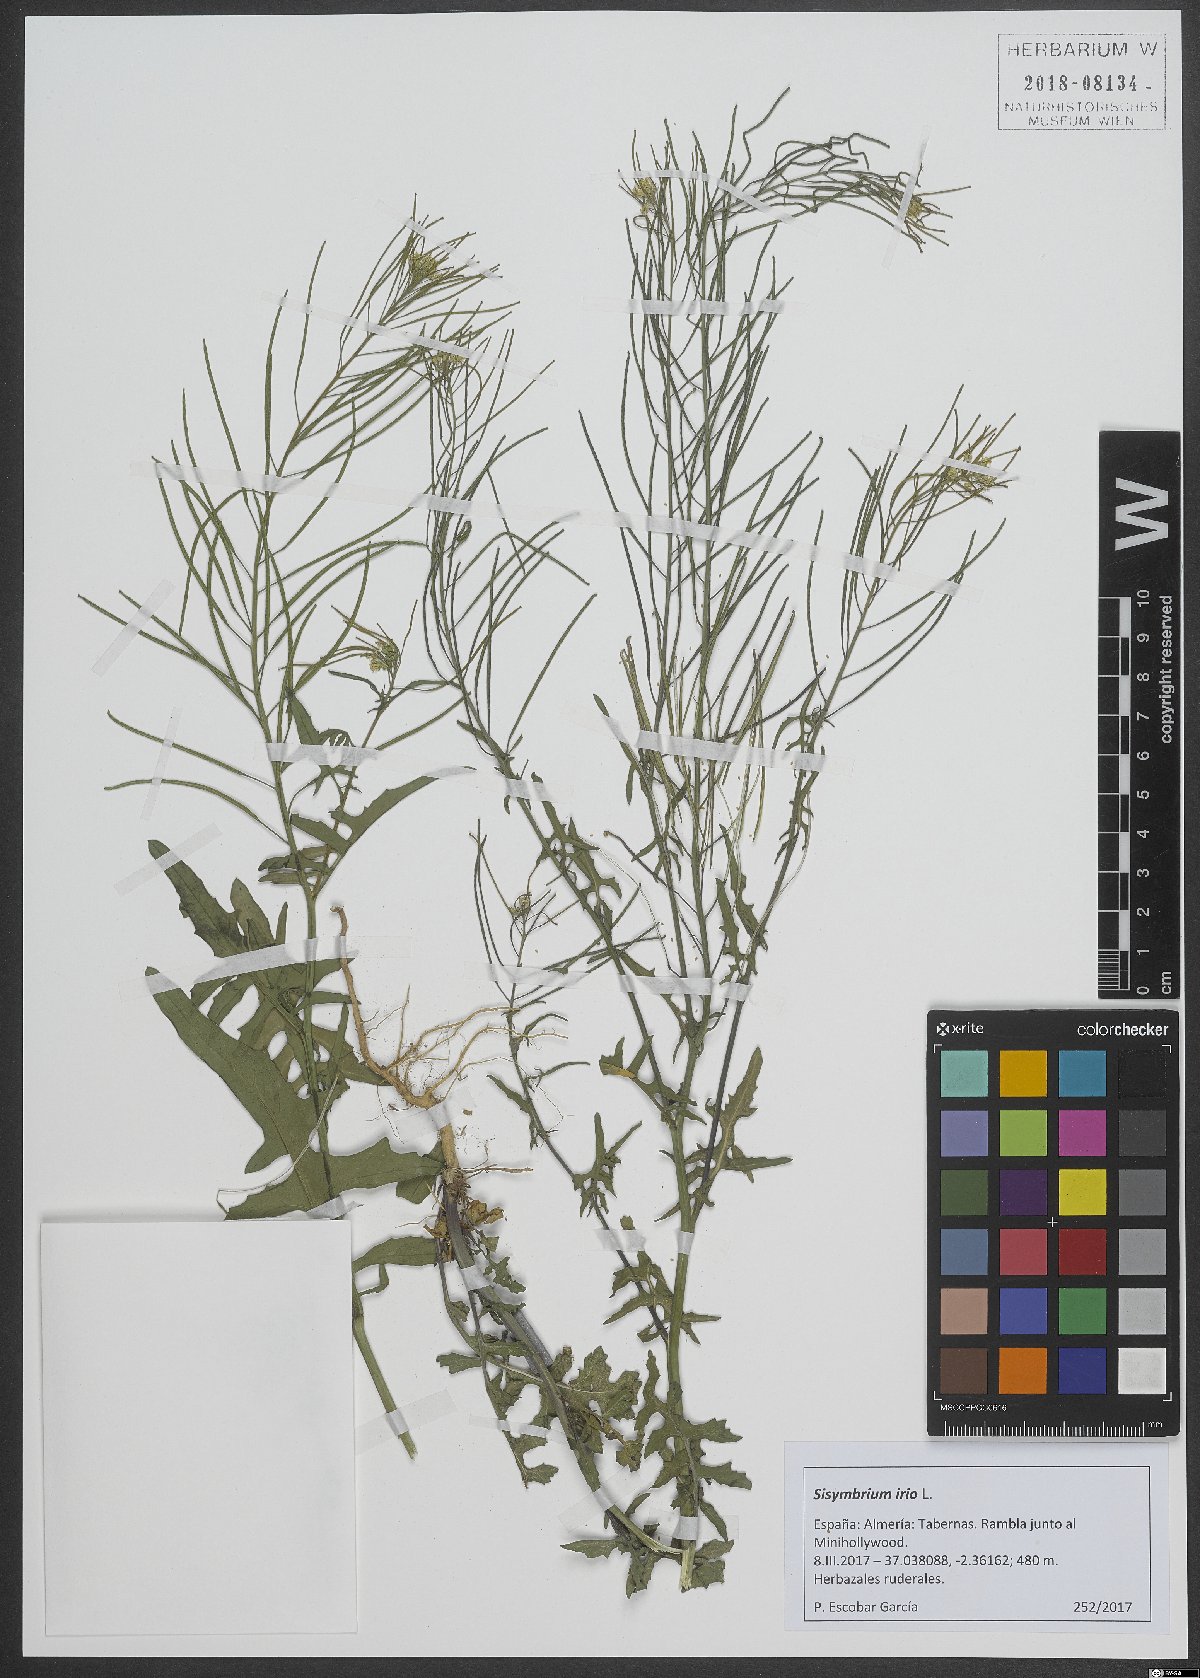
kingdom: Plantae
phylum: Tracheophyta
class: Magnoliopsida
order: Brassicales
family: Brassicaceae
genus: Sisymbrium
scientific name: Sisymbrium irio
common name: London rocket
